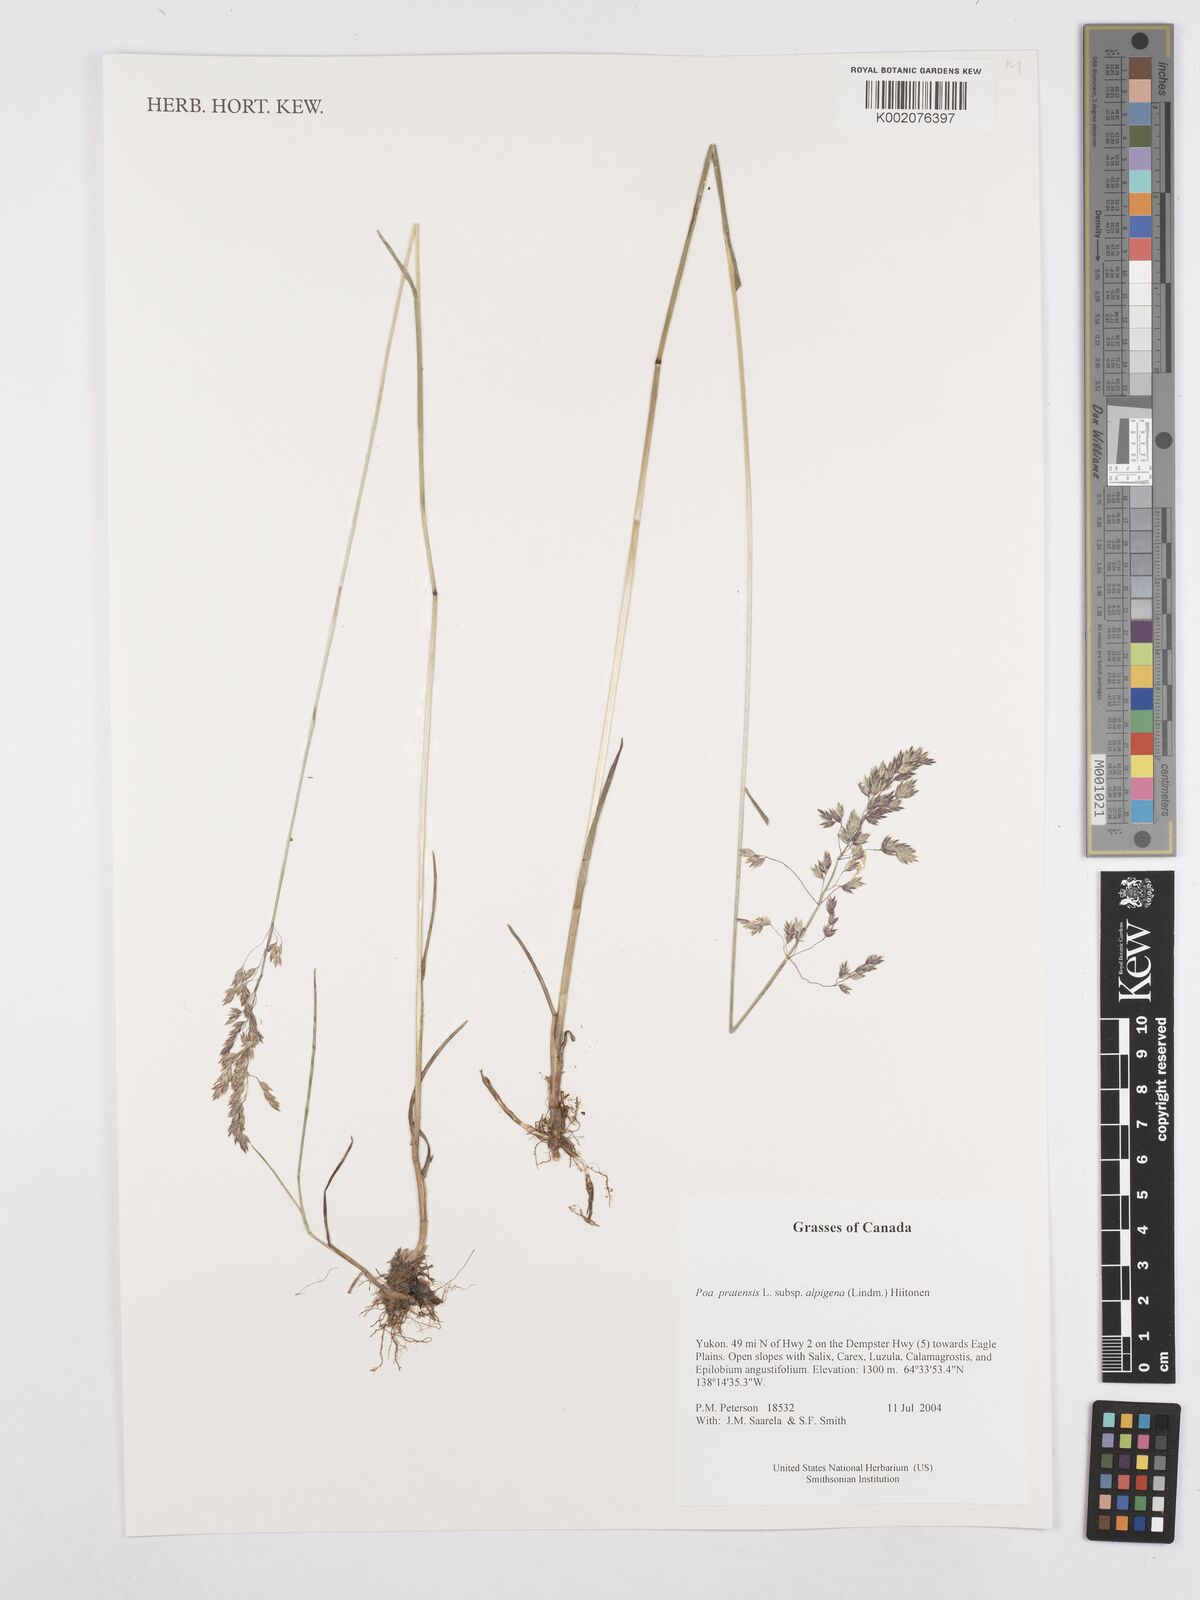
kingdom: Plantae
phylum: Tracheophyta
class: Liliopsida
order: Poales
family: Poaceae
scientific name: Poaceae
